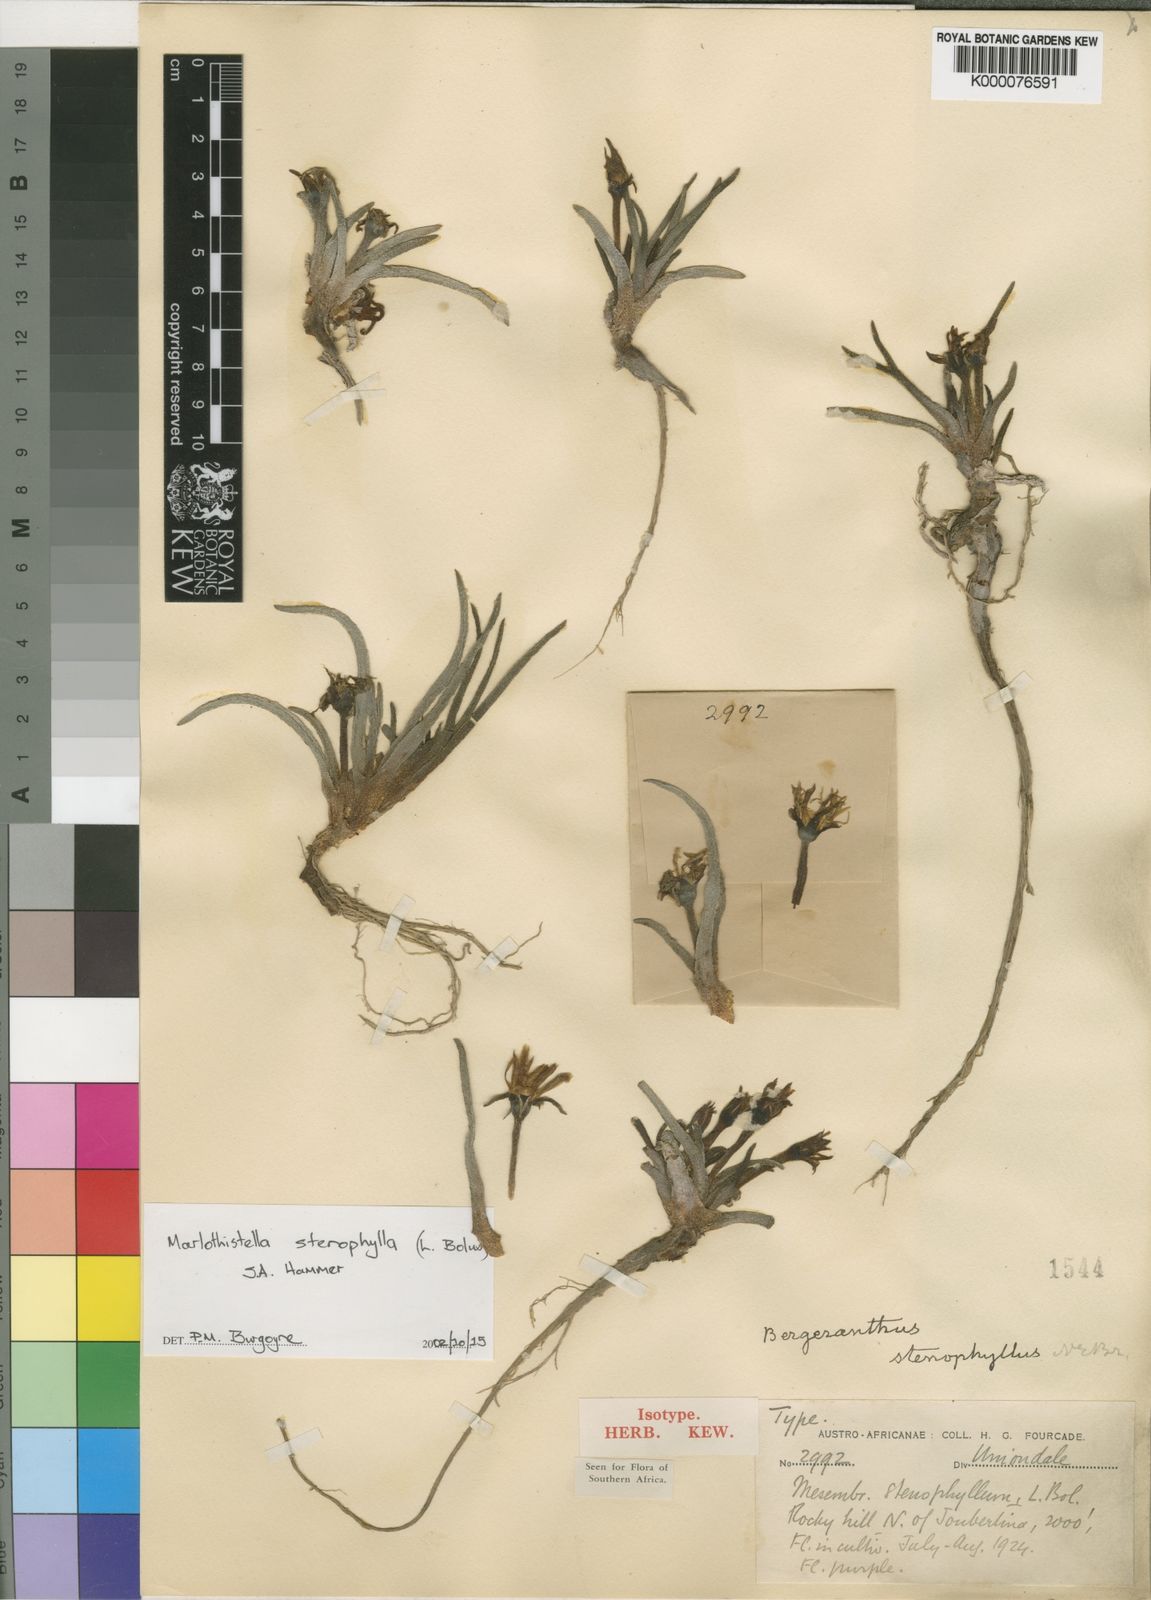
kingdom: Plantae
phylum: Tracheophyta
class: Magnoliopsida
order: Caryophyllales
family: Aizoaceae
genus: Marlothistella
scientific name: Marlothistella stenophylla
